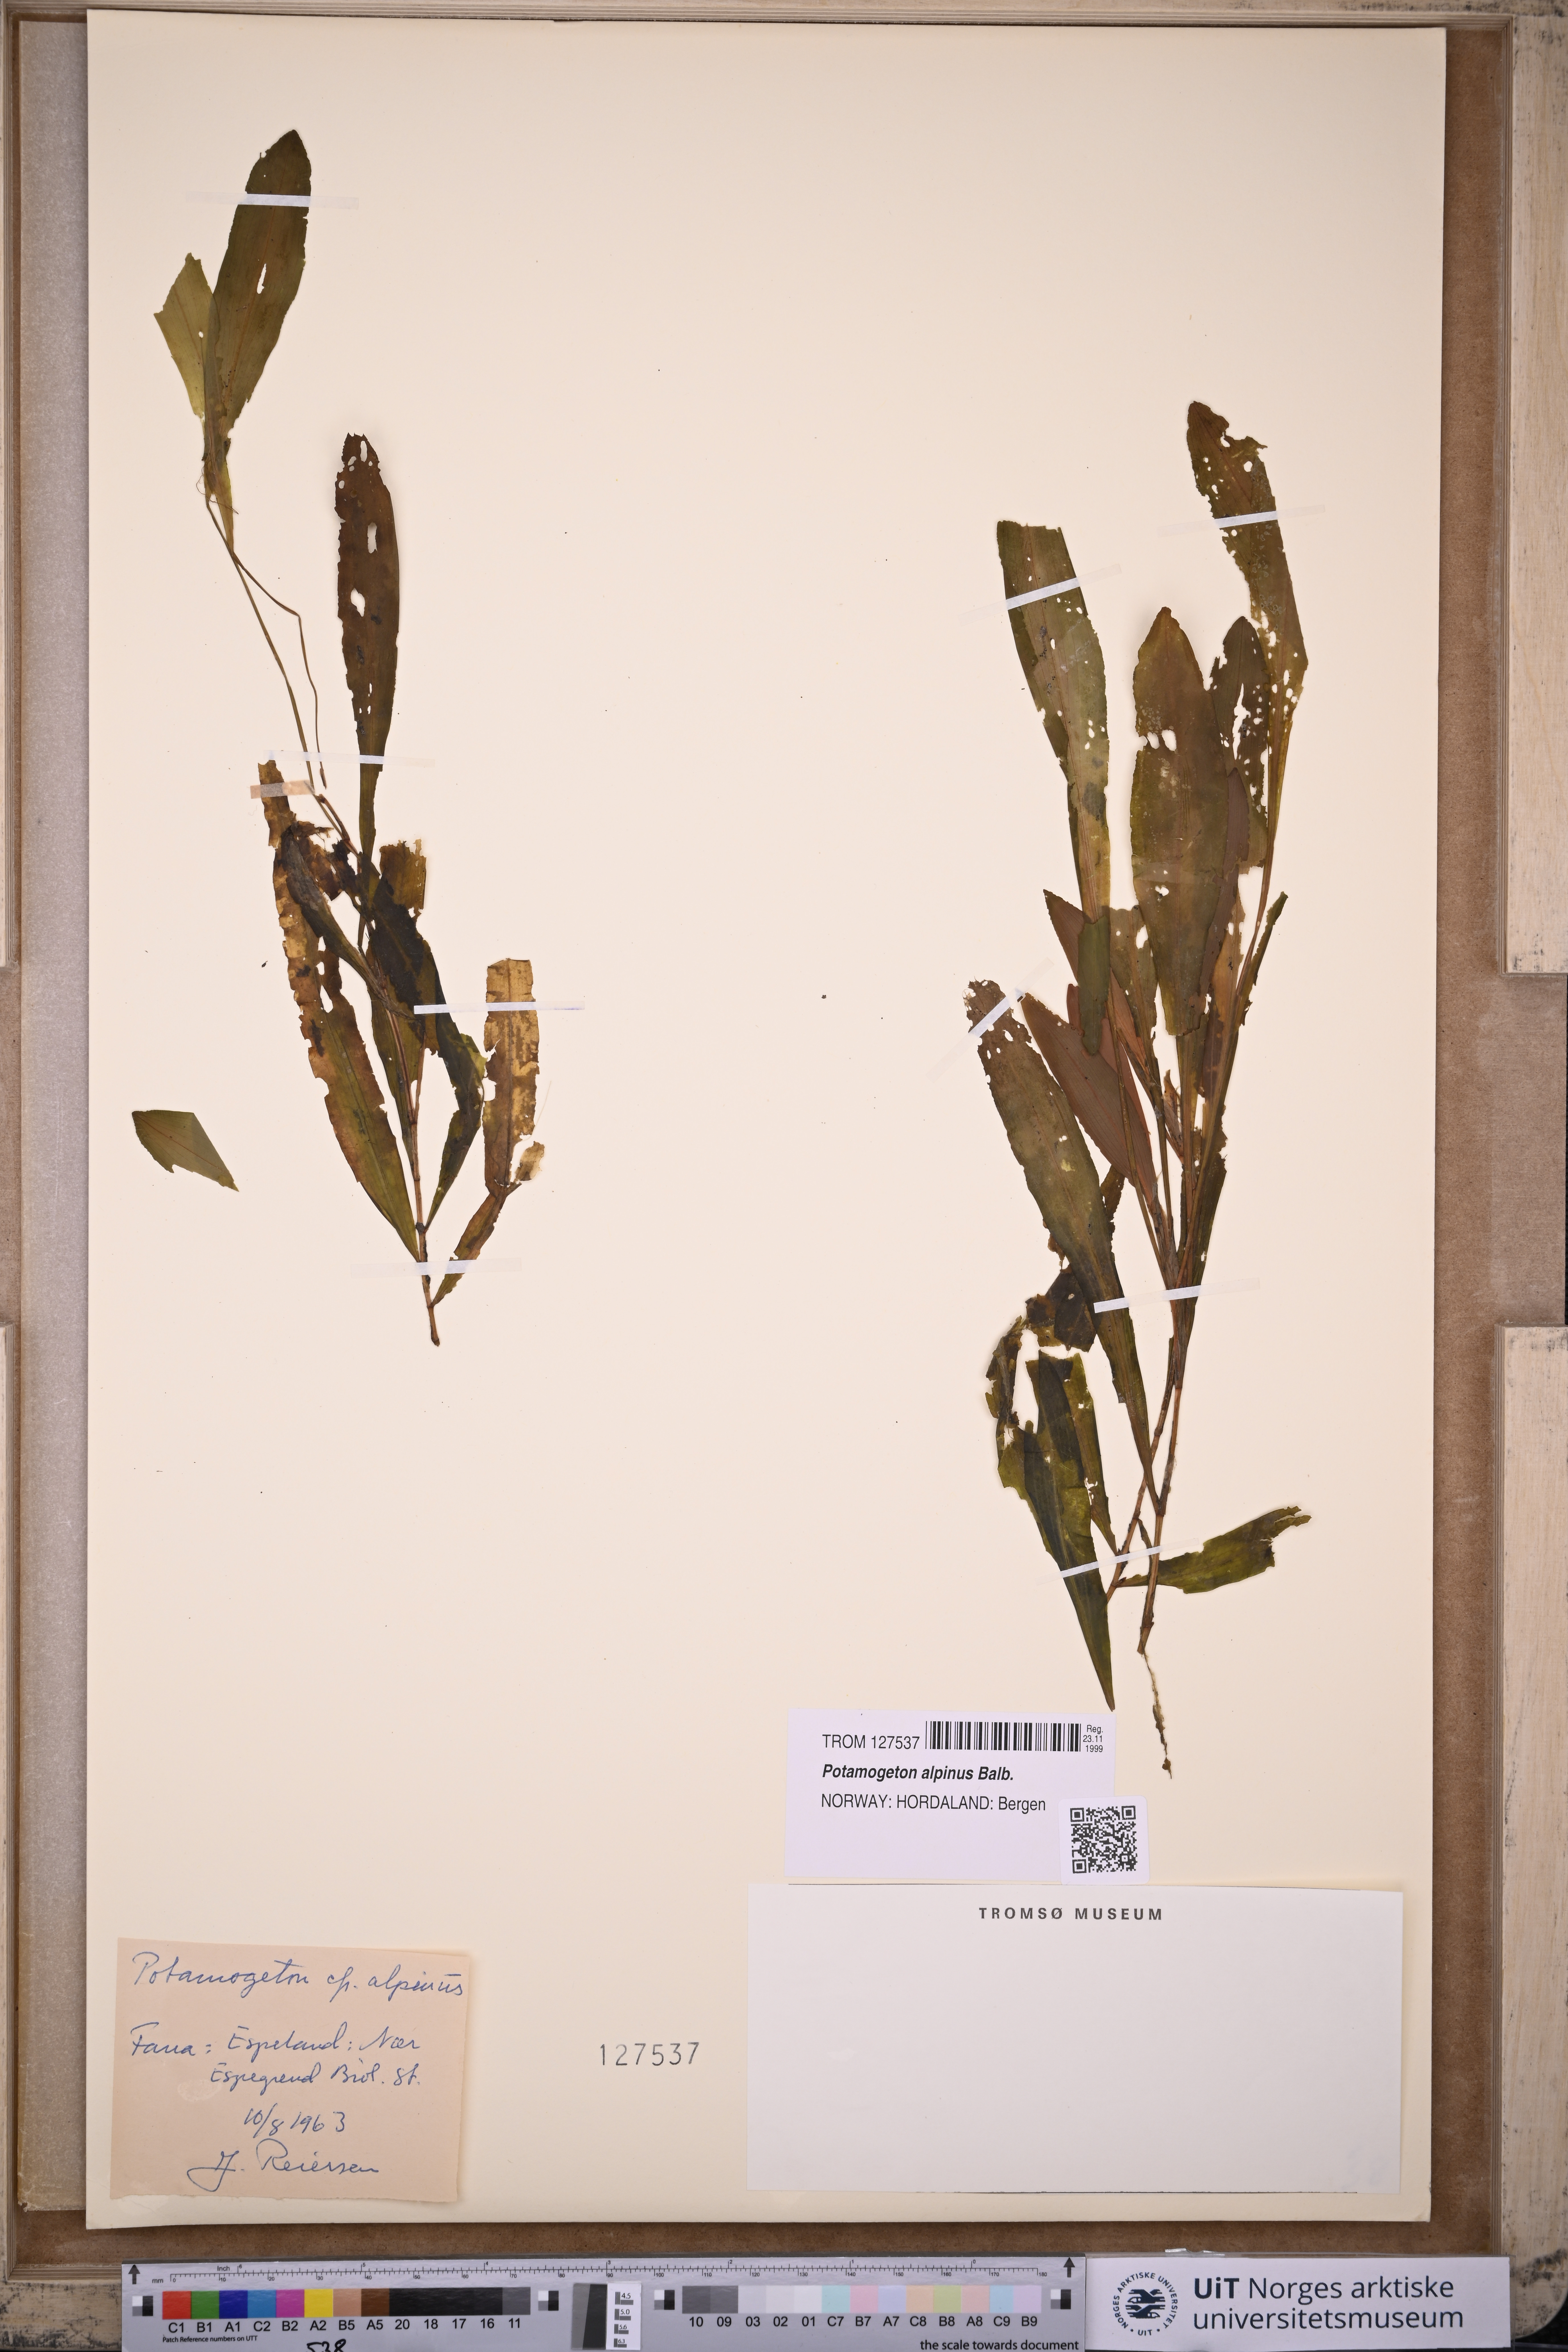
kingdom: Plantae
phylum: Tracheophyta
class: Liliopsida
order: Alismatales
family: Potamogetonaceae
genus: Potamogeton
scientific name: Potamogeton alpinus
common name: Red pondweed
